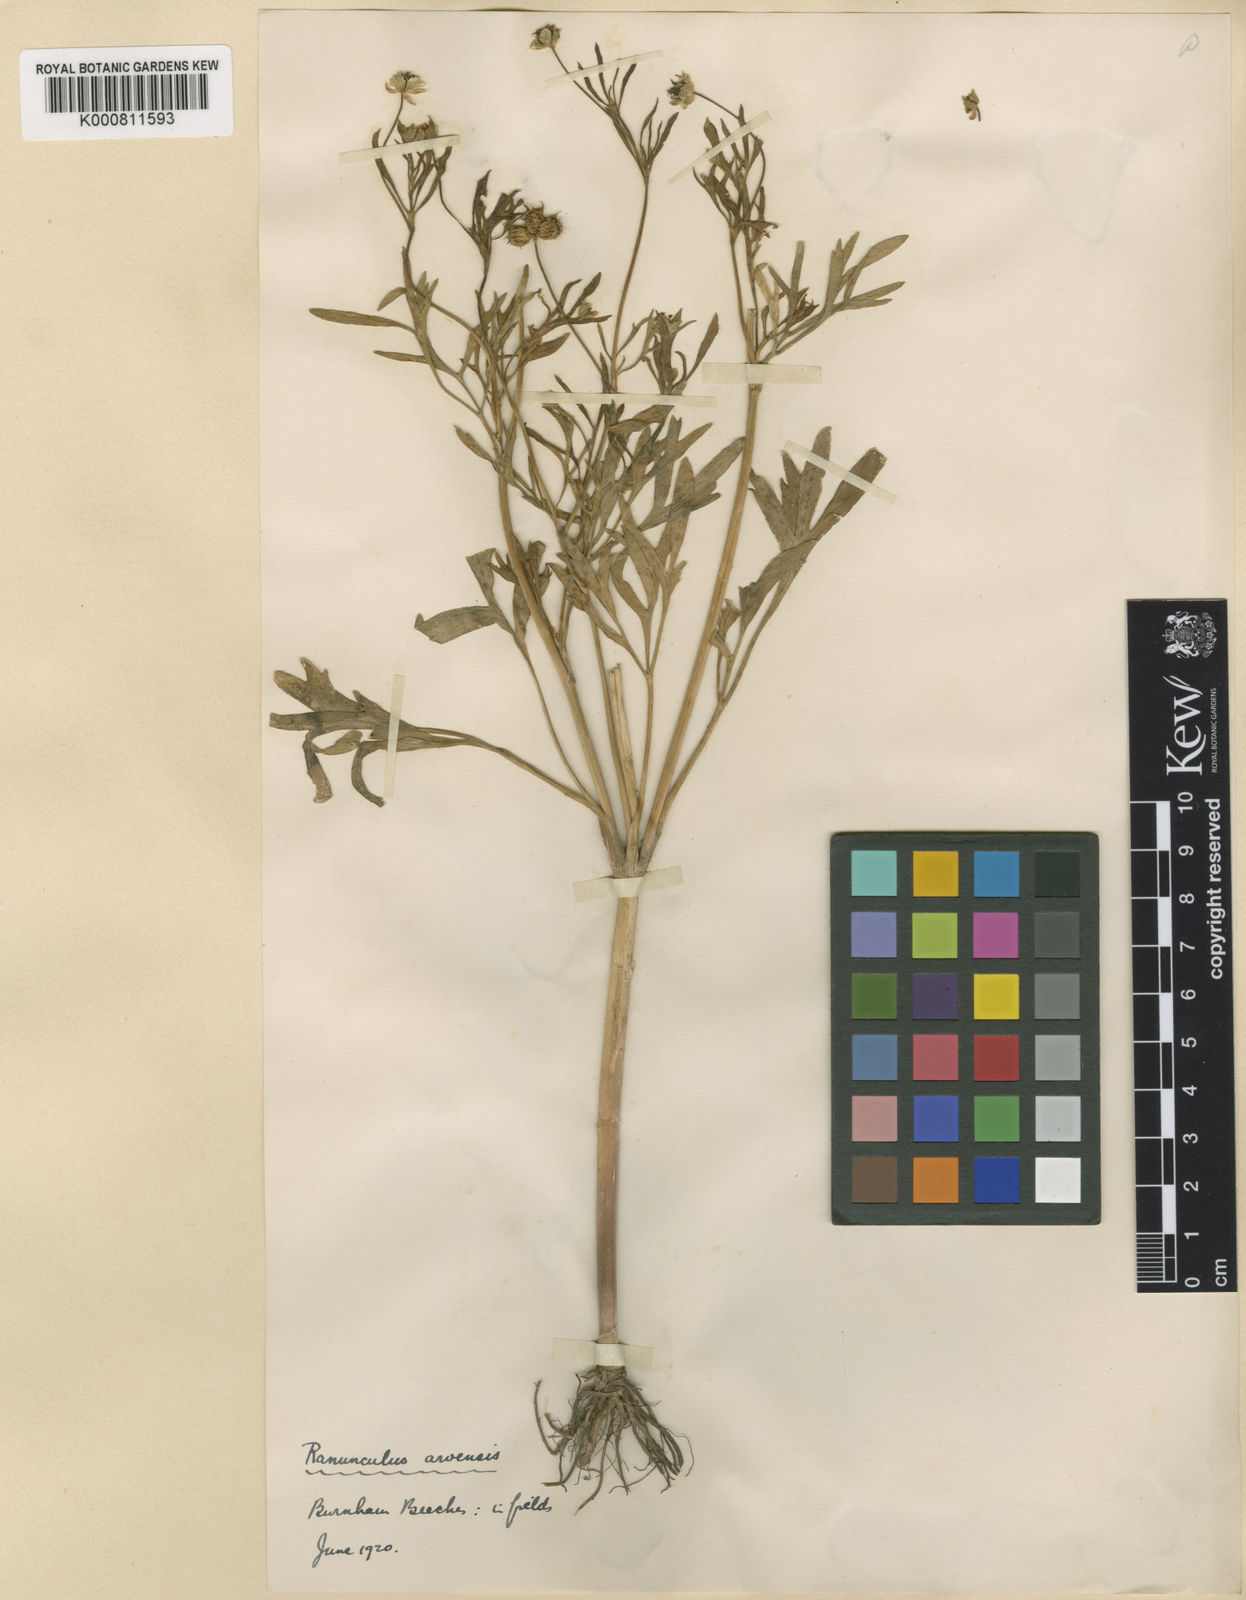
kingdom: Plantae
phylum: Tracheophyta
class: Magnoliopsida
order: Ranunculales
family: Ranunculaceae
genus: Ranunculus
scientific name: Ranunculus arvensis
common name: Corn buttercup
